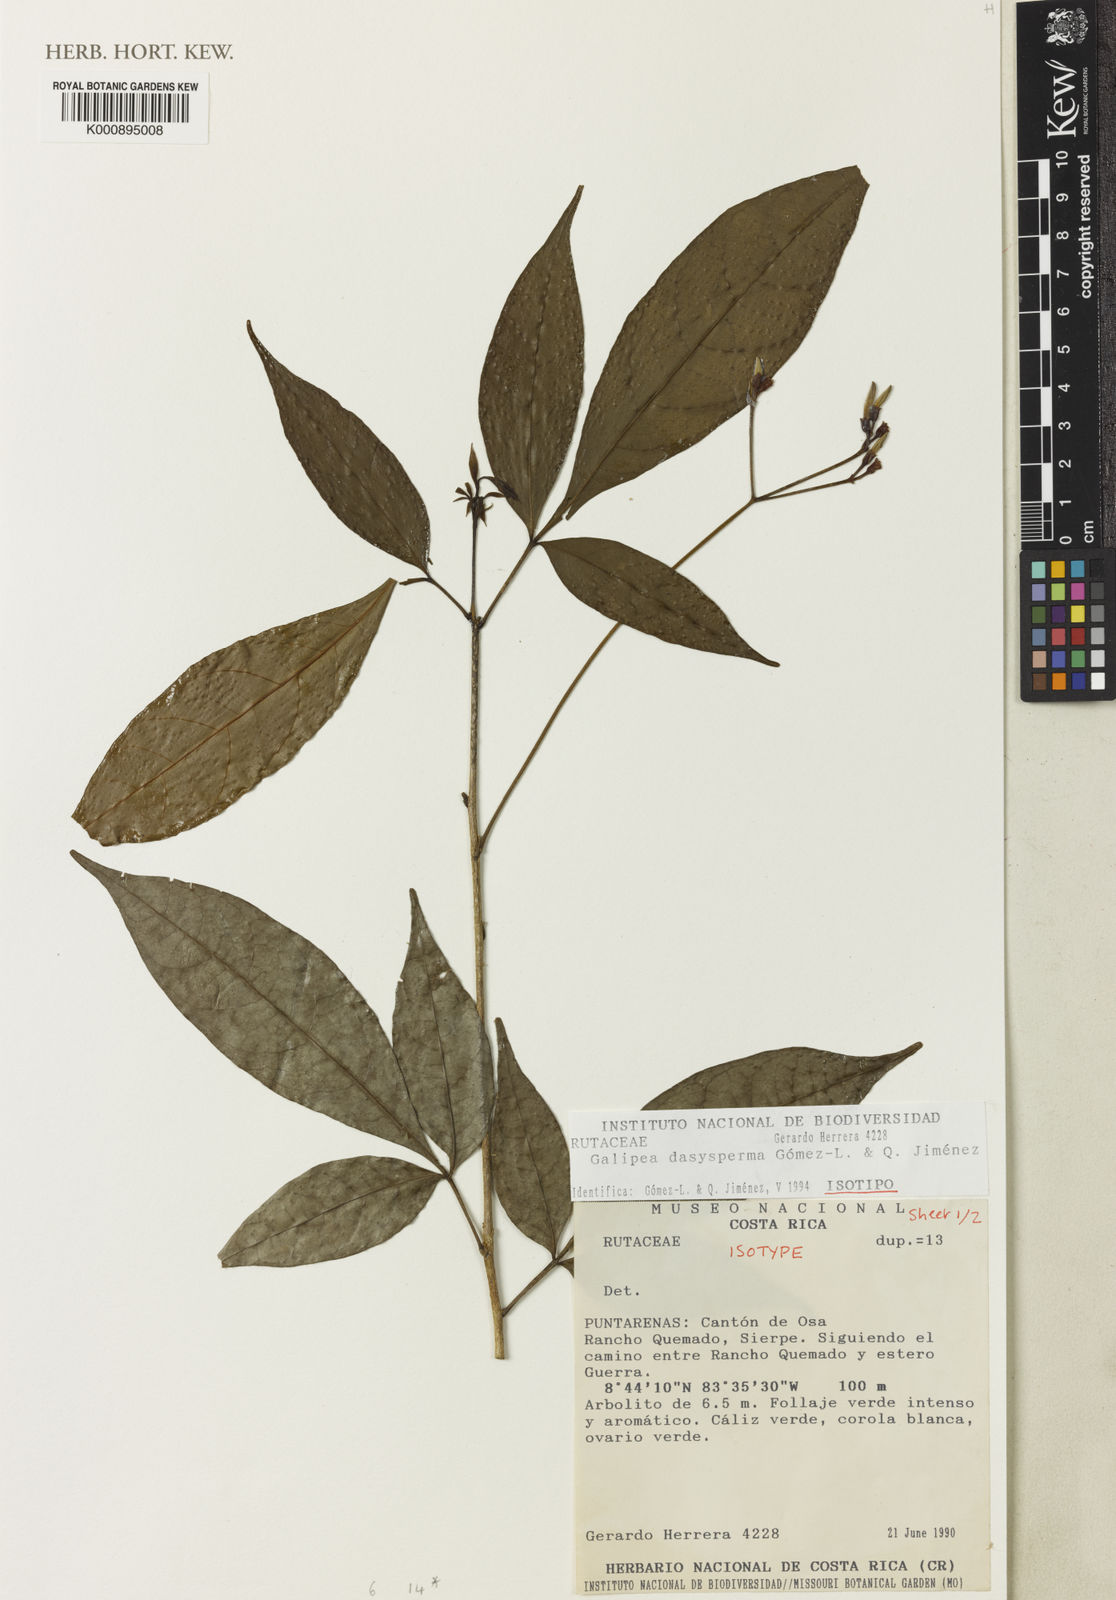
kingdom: Plantae
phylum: Tracheophyta
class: Magnoliopsida
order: Sapindales
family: Rutaceae
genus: Galipea
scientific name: Galipea
